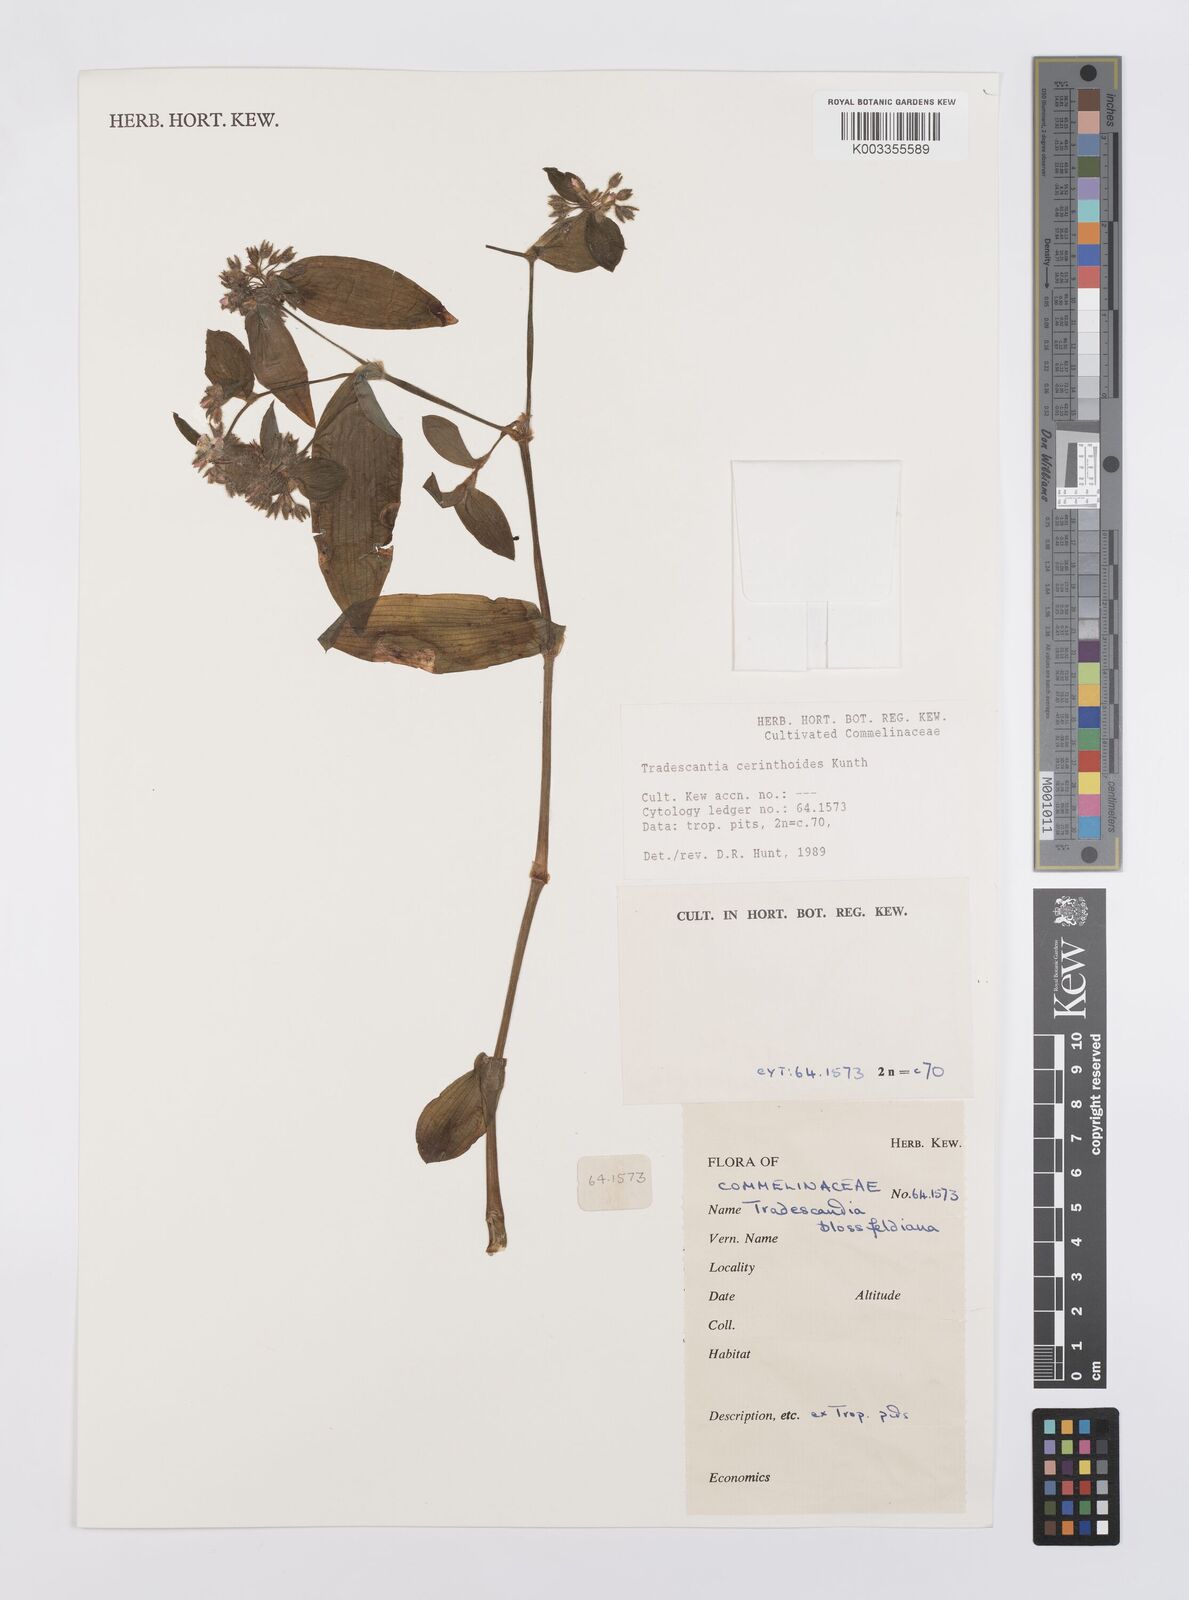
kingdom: Plantae
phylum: Tracheophyta
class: Liliopsida
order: Commelinales
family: Commelinaceae
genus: Tradescantia
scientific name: Tradescantia cerinthoides
